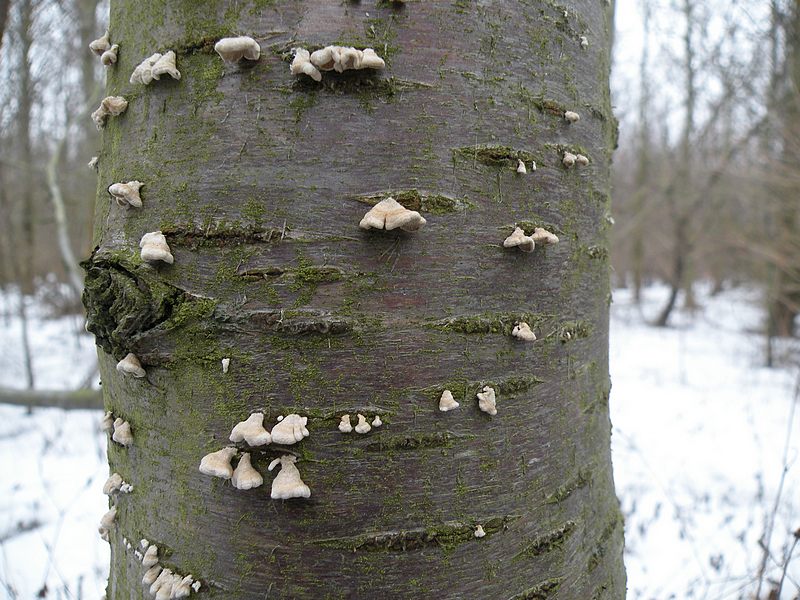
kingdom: Fungi
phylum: Basidiomycota
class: Agaricomycetes
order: Amylocorticiales
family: Amylocorticiaceae
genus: Plicaturopsis
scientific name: Plicaturopsis crispa
